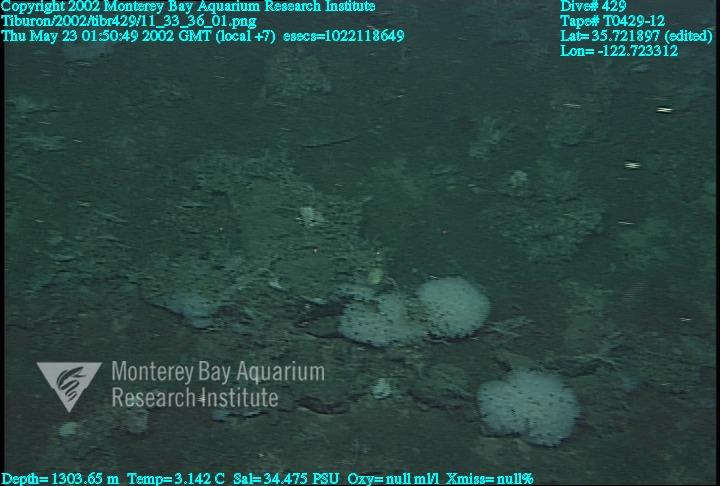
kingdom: Animalia
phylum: Porifera
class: Hexactinellida
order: Lyssacinosida
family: Rossellidae
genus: Staurocalyptus
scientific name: Staurocalyptus
